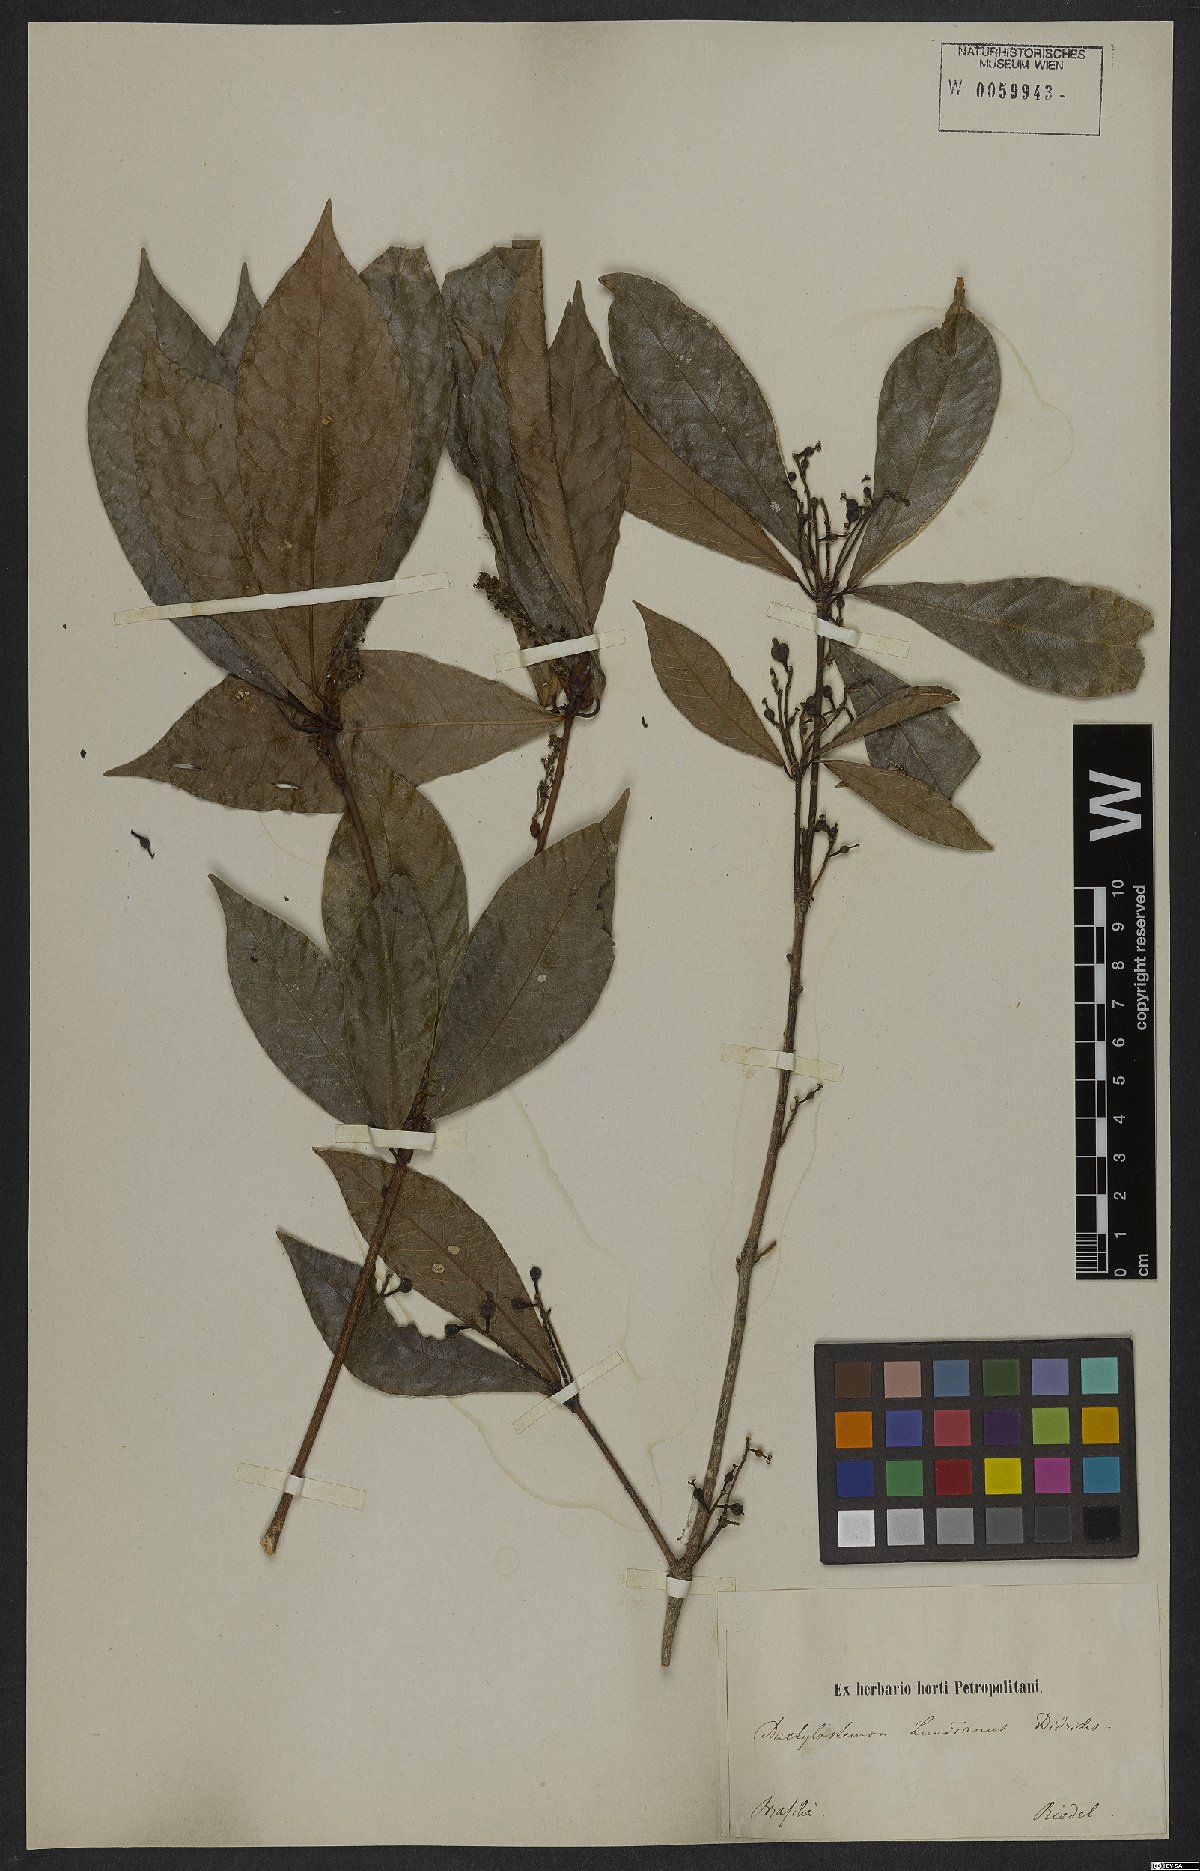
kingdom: Plantae
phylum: Tracheophyta
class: Magnoliopsida
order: Malpighiales
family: Euphorbiaceae
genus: Actinostemon
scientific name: Actinostemon klotzschii
